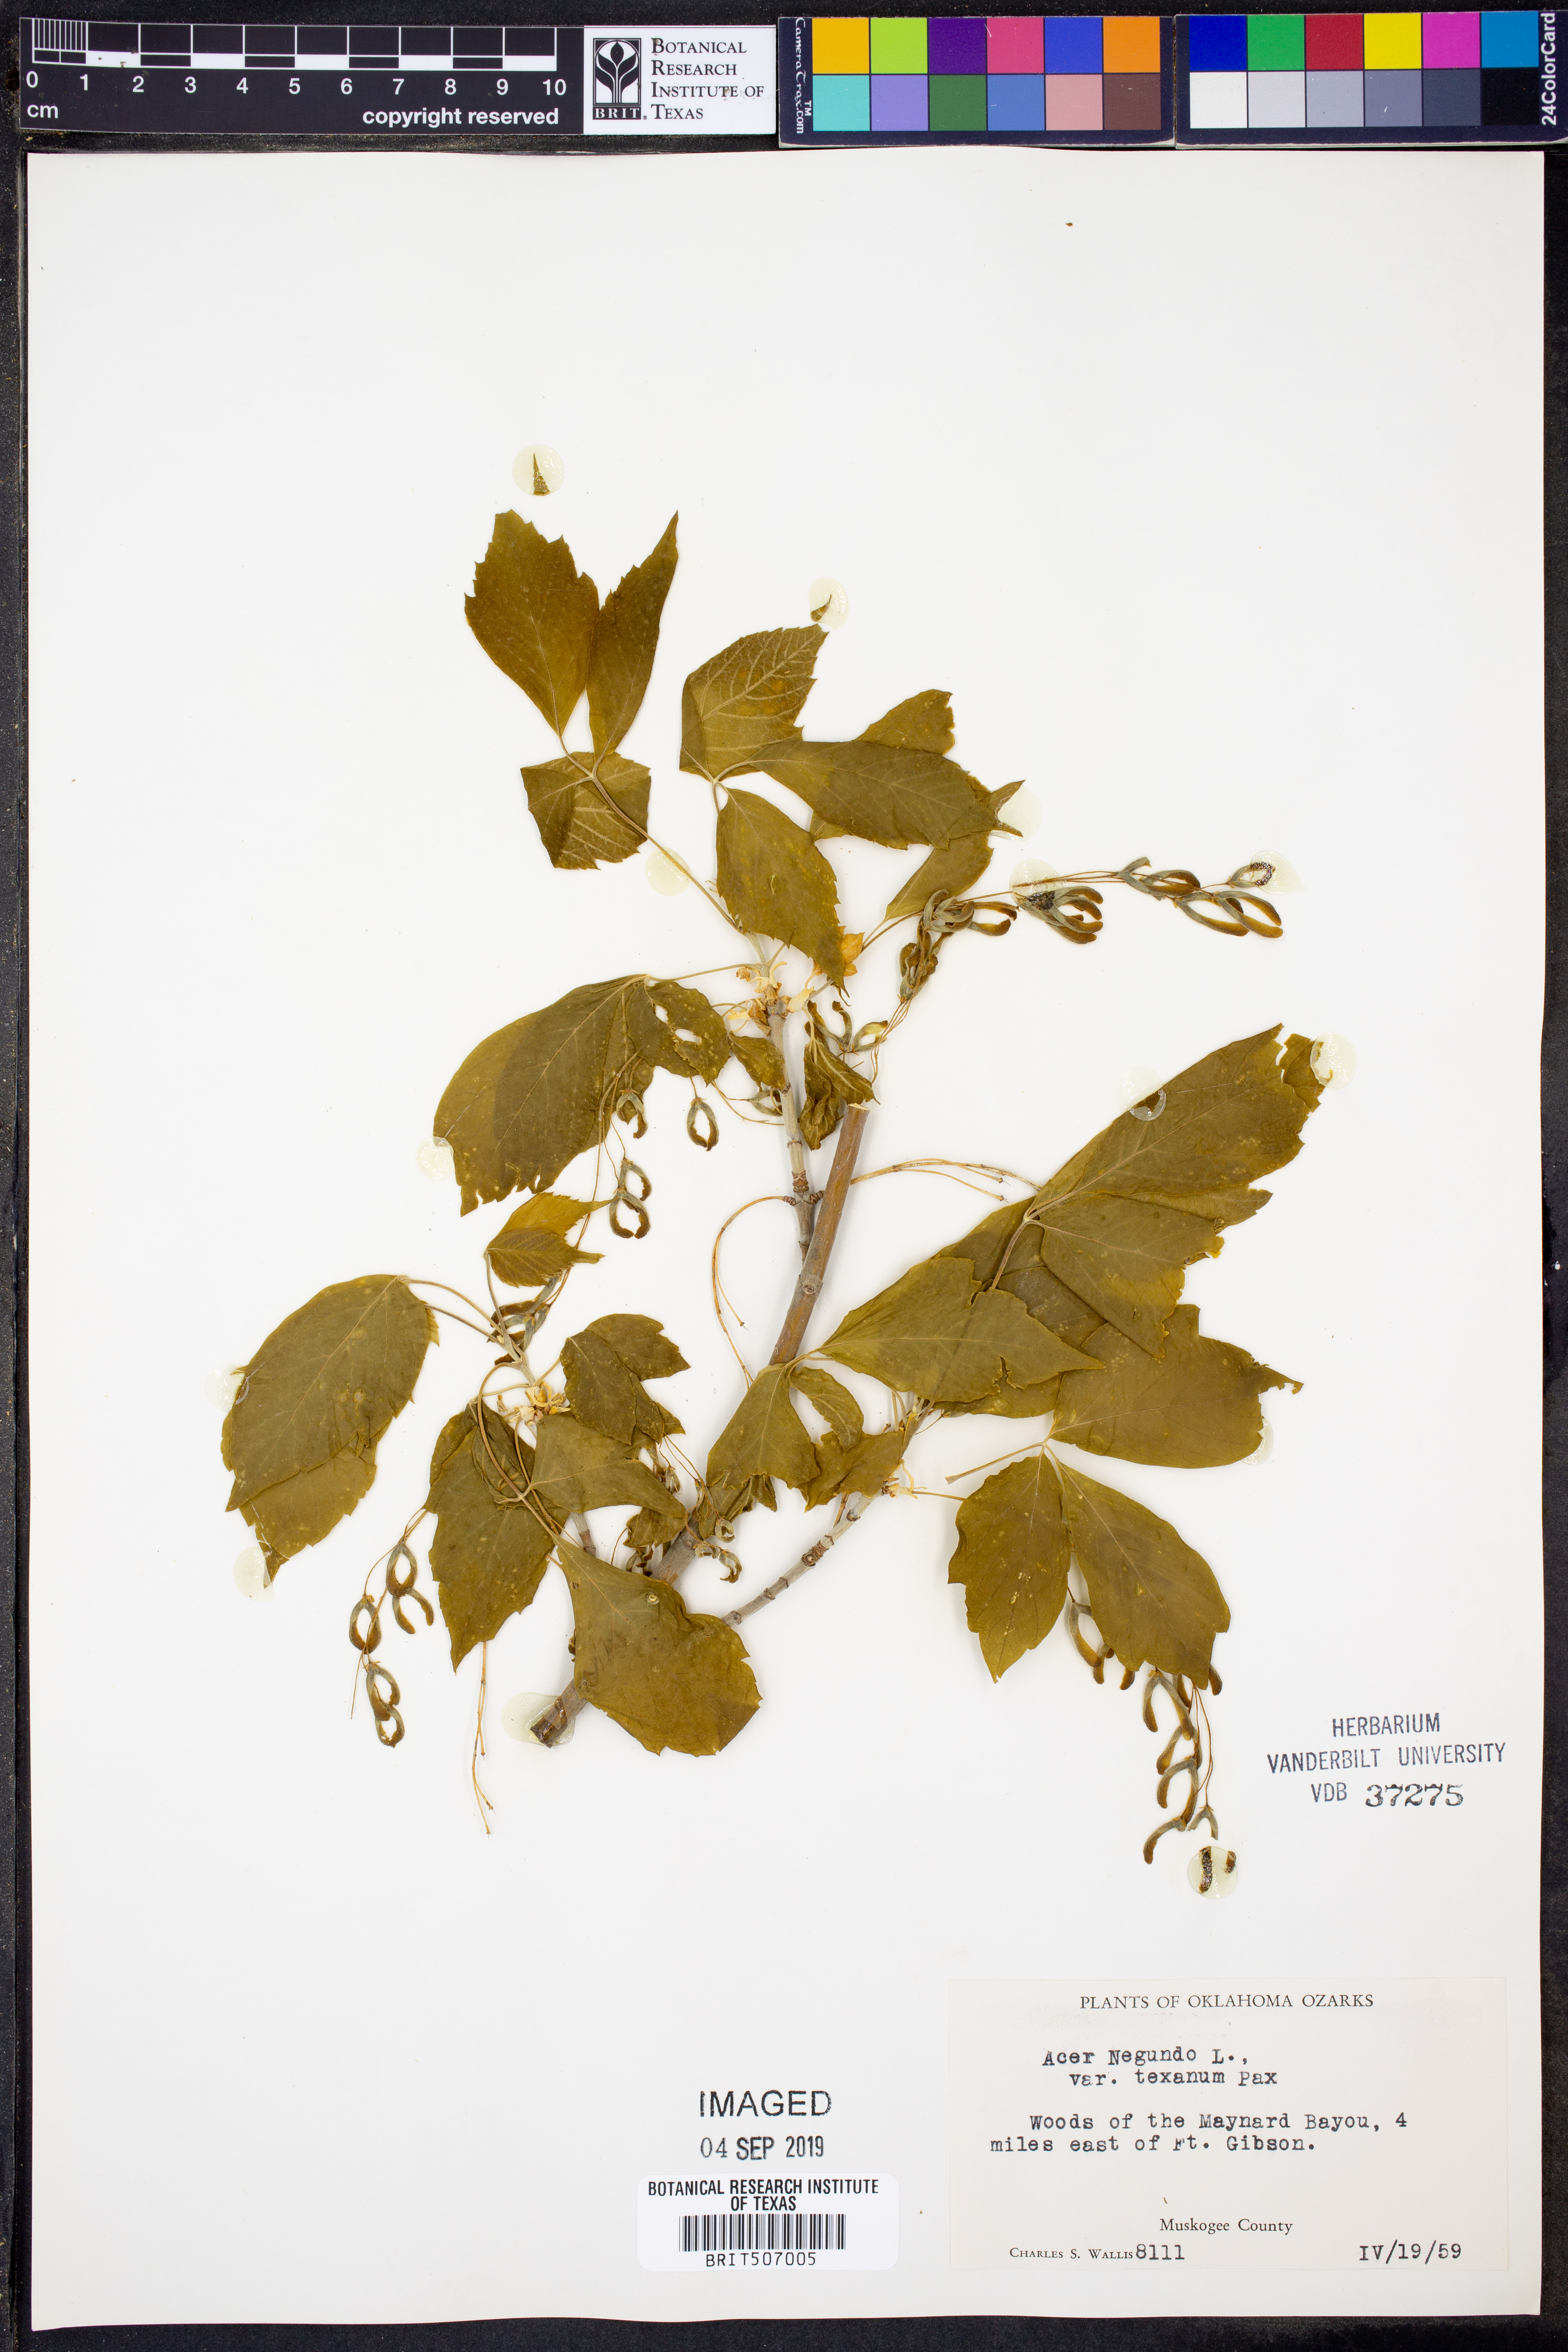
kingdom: Plantae
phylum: Tracheophyta
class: Magnoliopsida
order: Sapindales
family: Sapindaceae
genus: Acer
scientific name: Acer negundo
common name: Ashleaf maple
